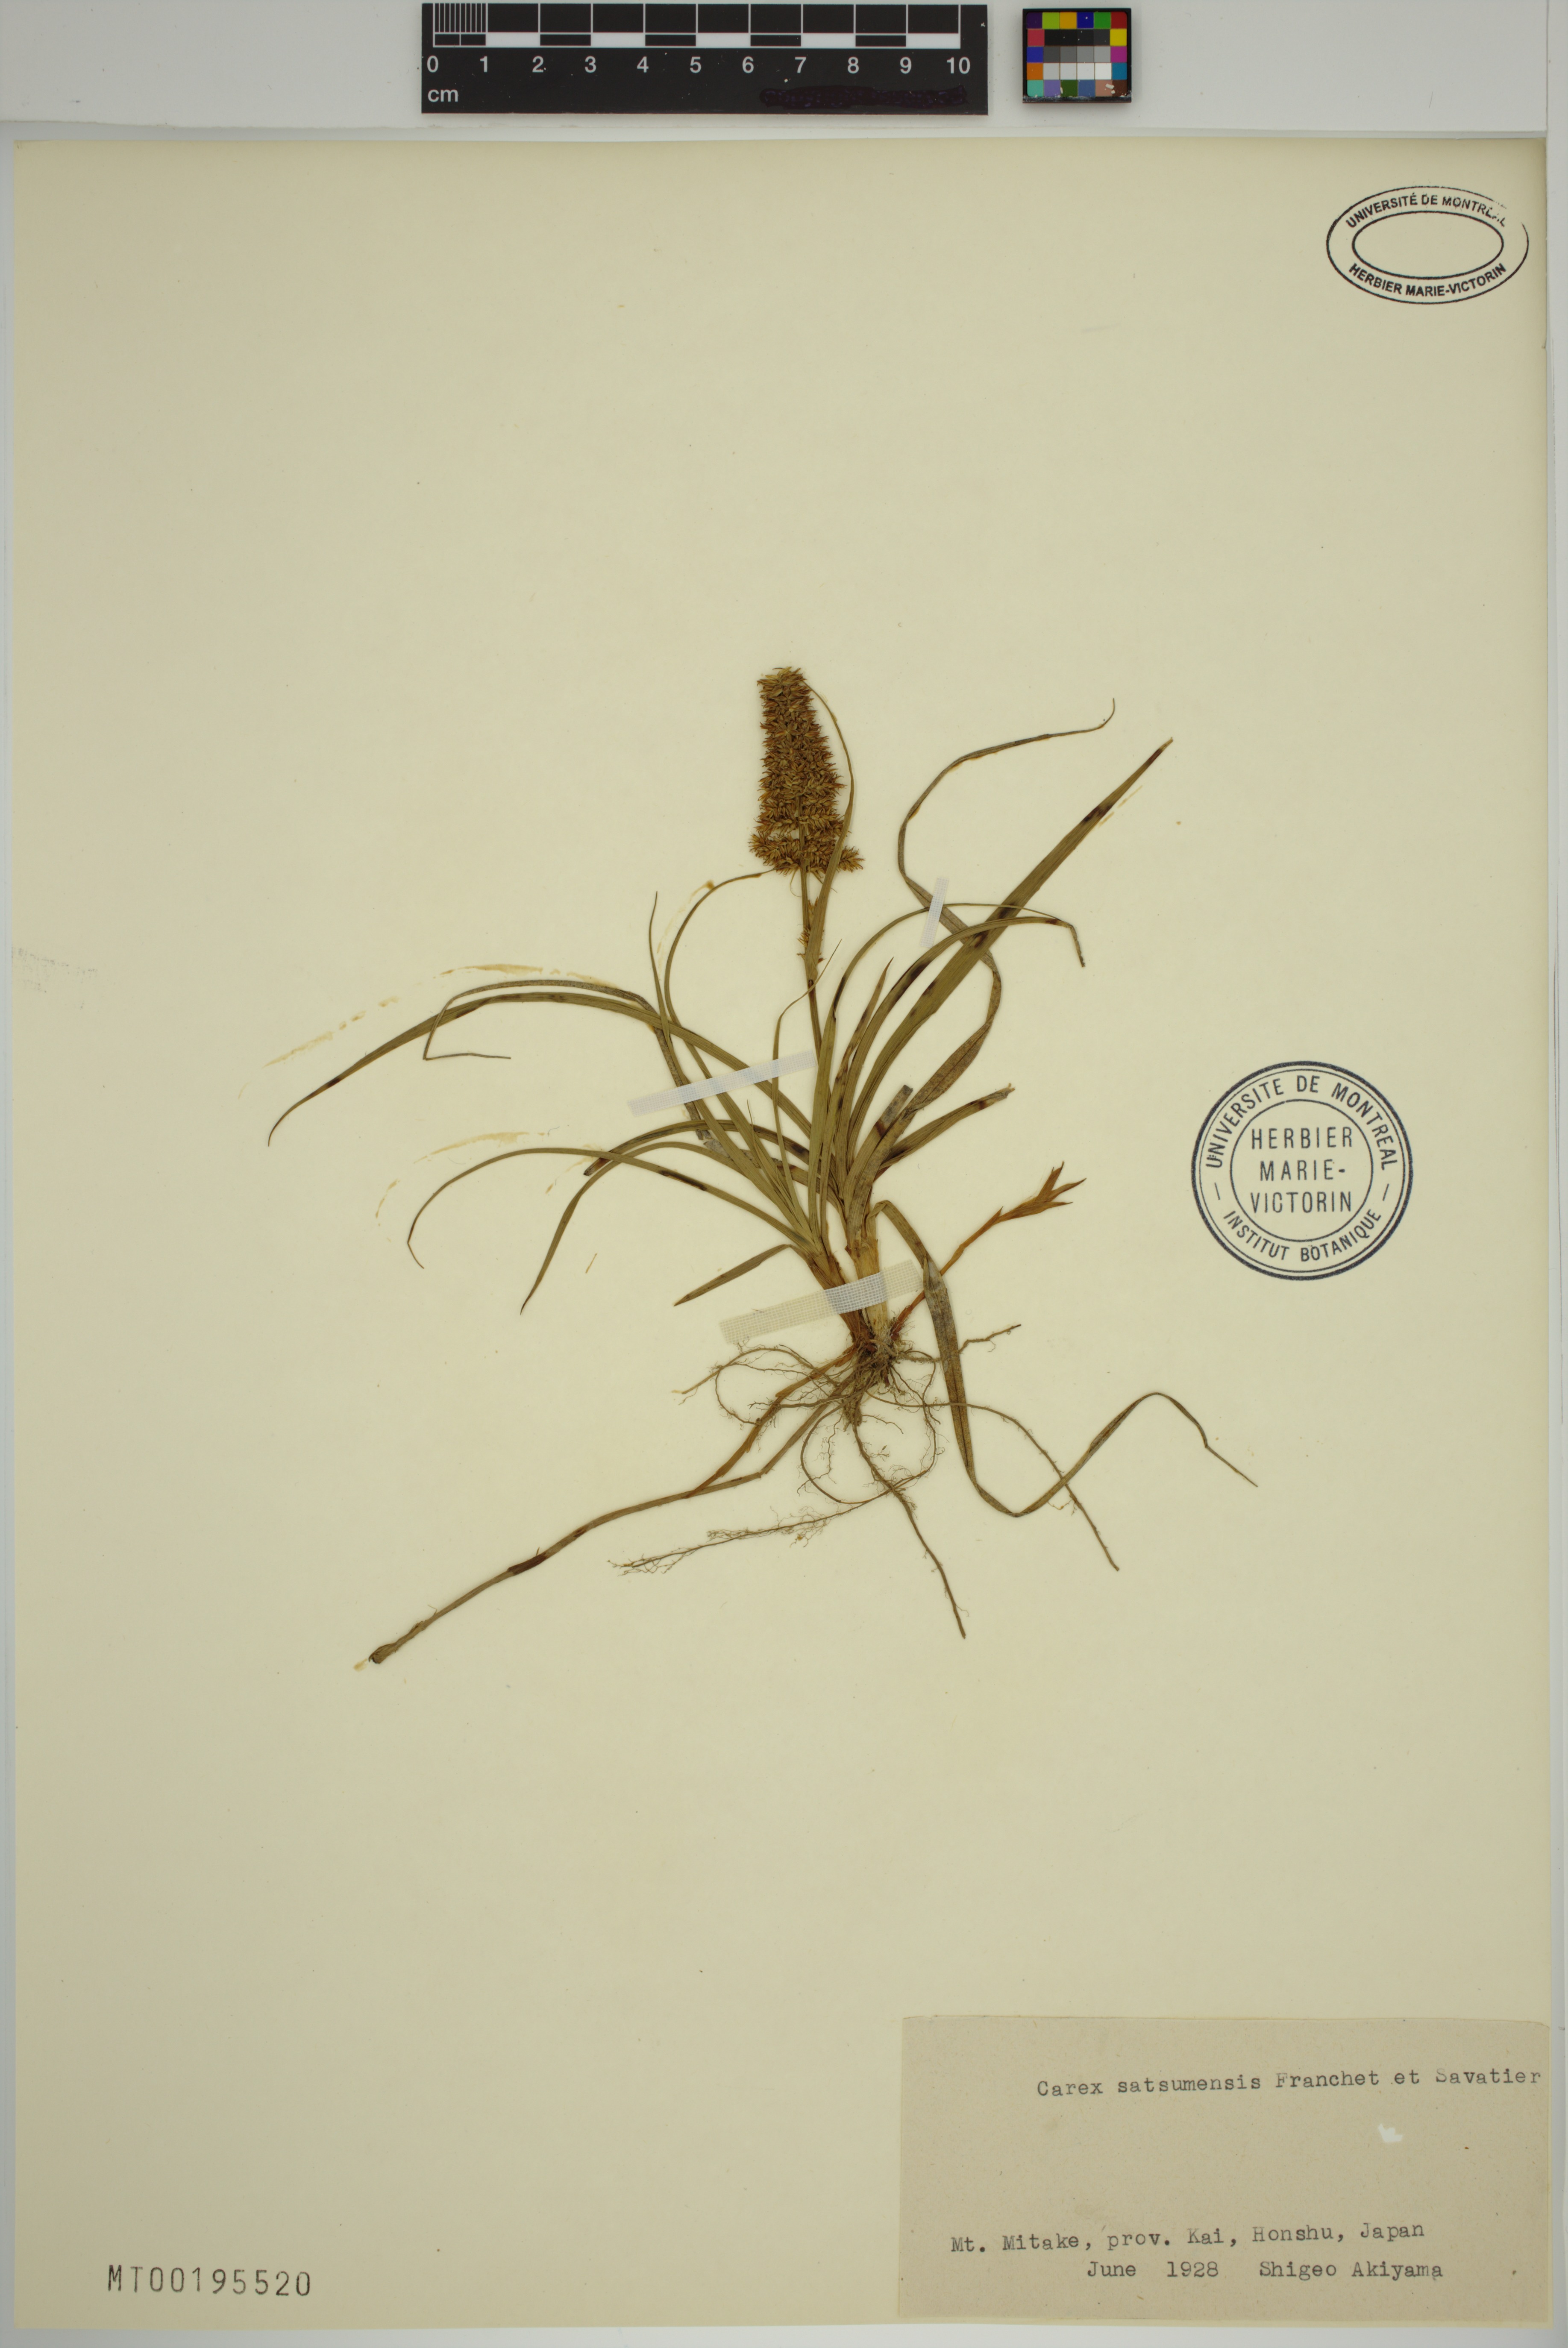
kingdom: Plantae
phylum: Tracheophyta
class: Liliopsida
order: Poales
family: Cyperaceae
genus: Carex
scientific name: Carex satsumensis
